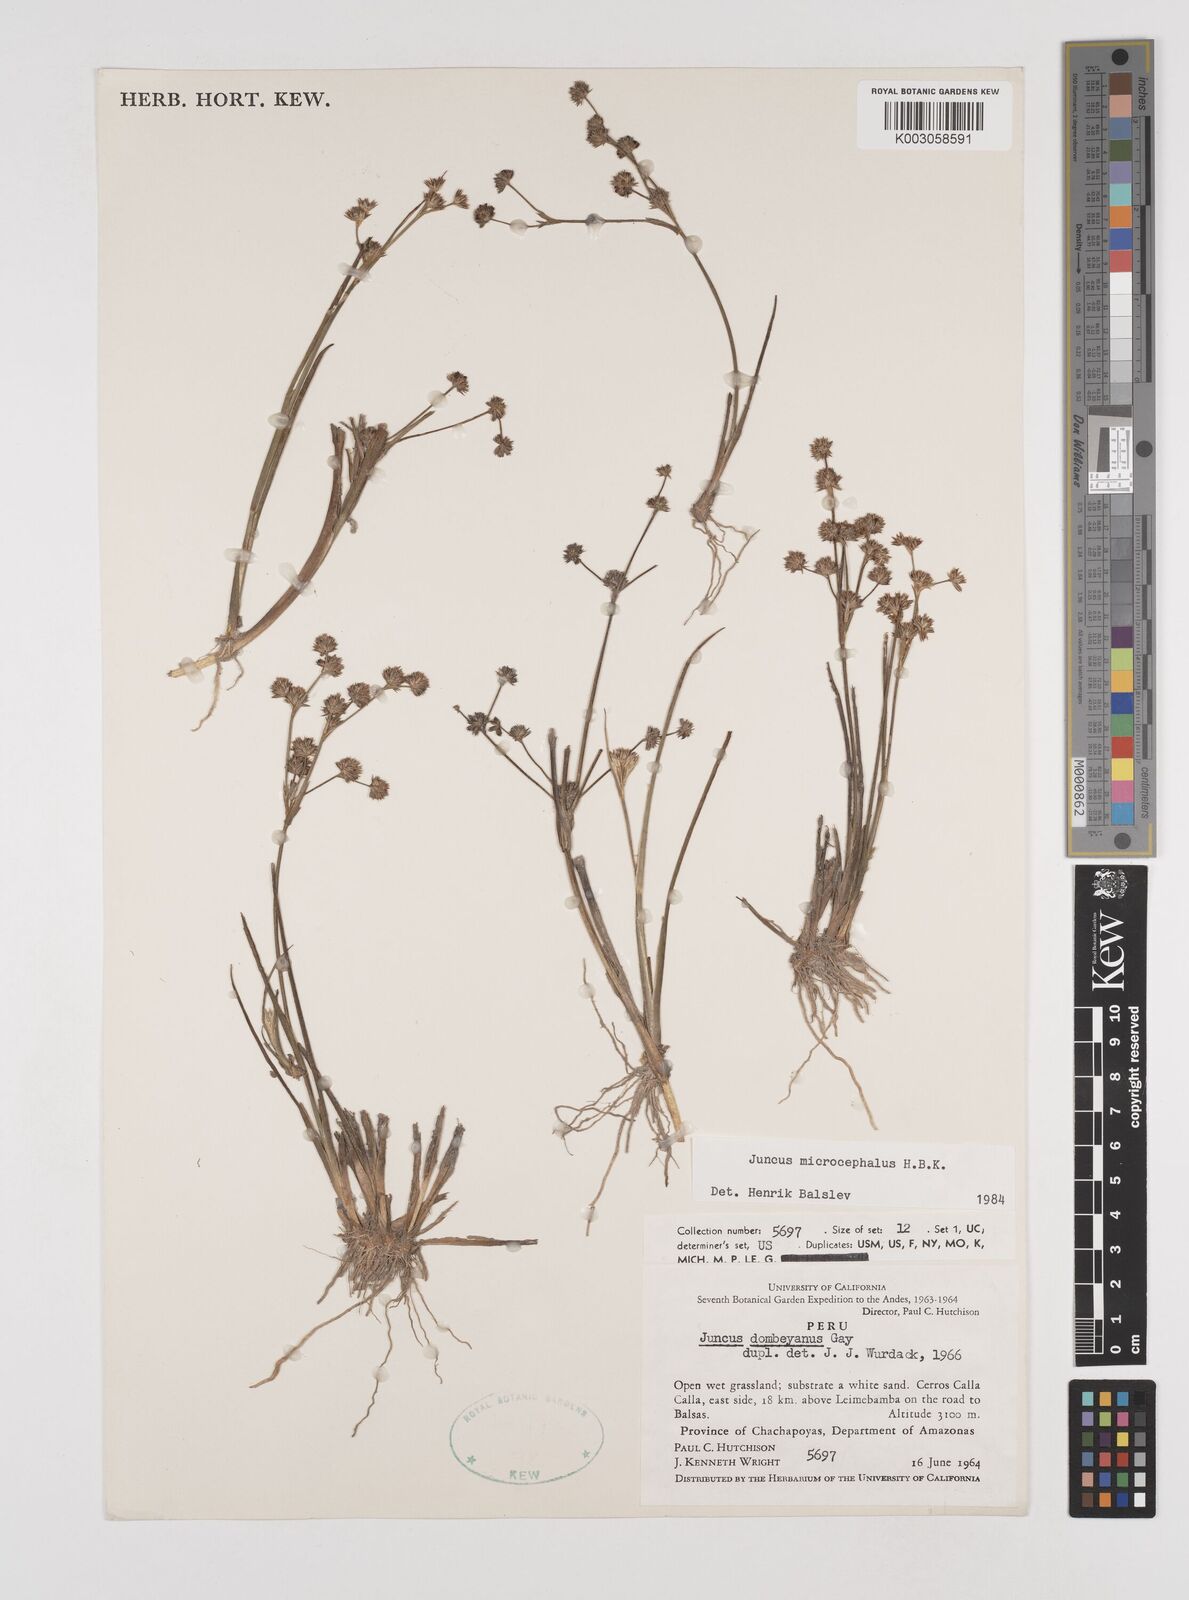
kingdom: Plantae
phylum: Tracheophyta
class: Liliopsida
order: Poales
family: Juncaceae
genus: Juncus
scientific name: Juncus
